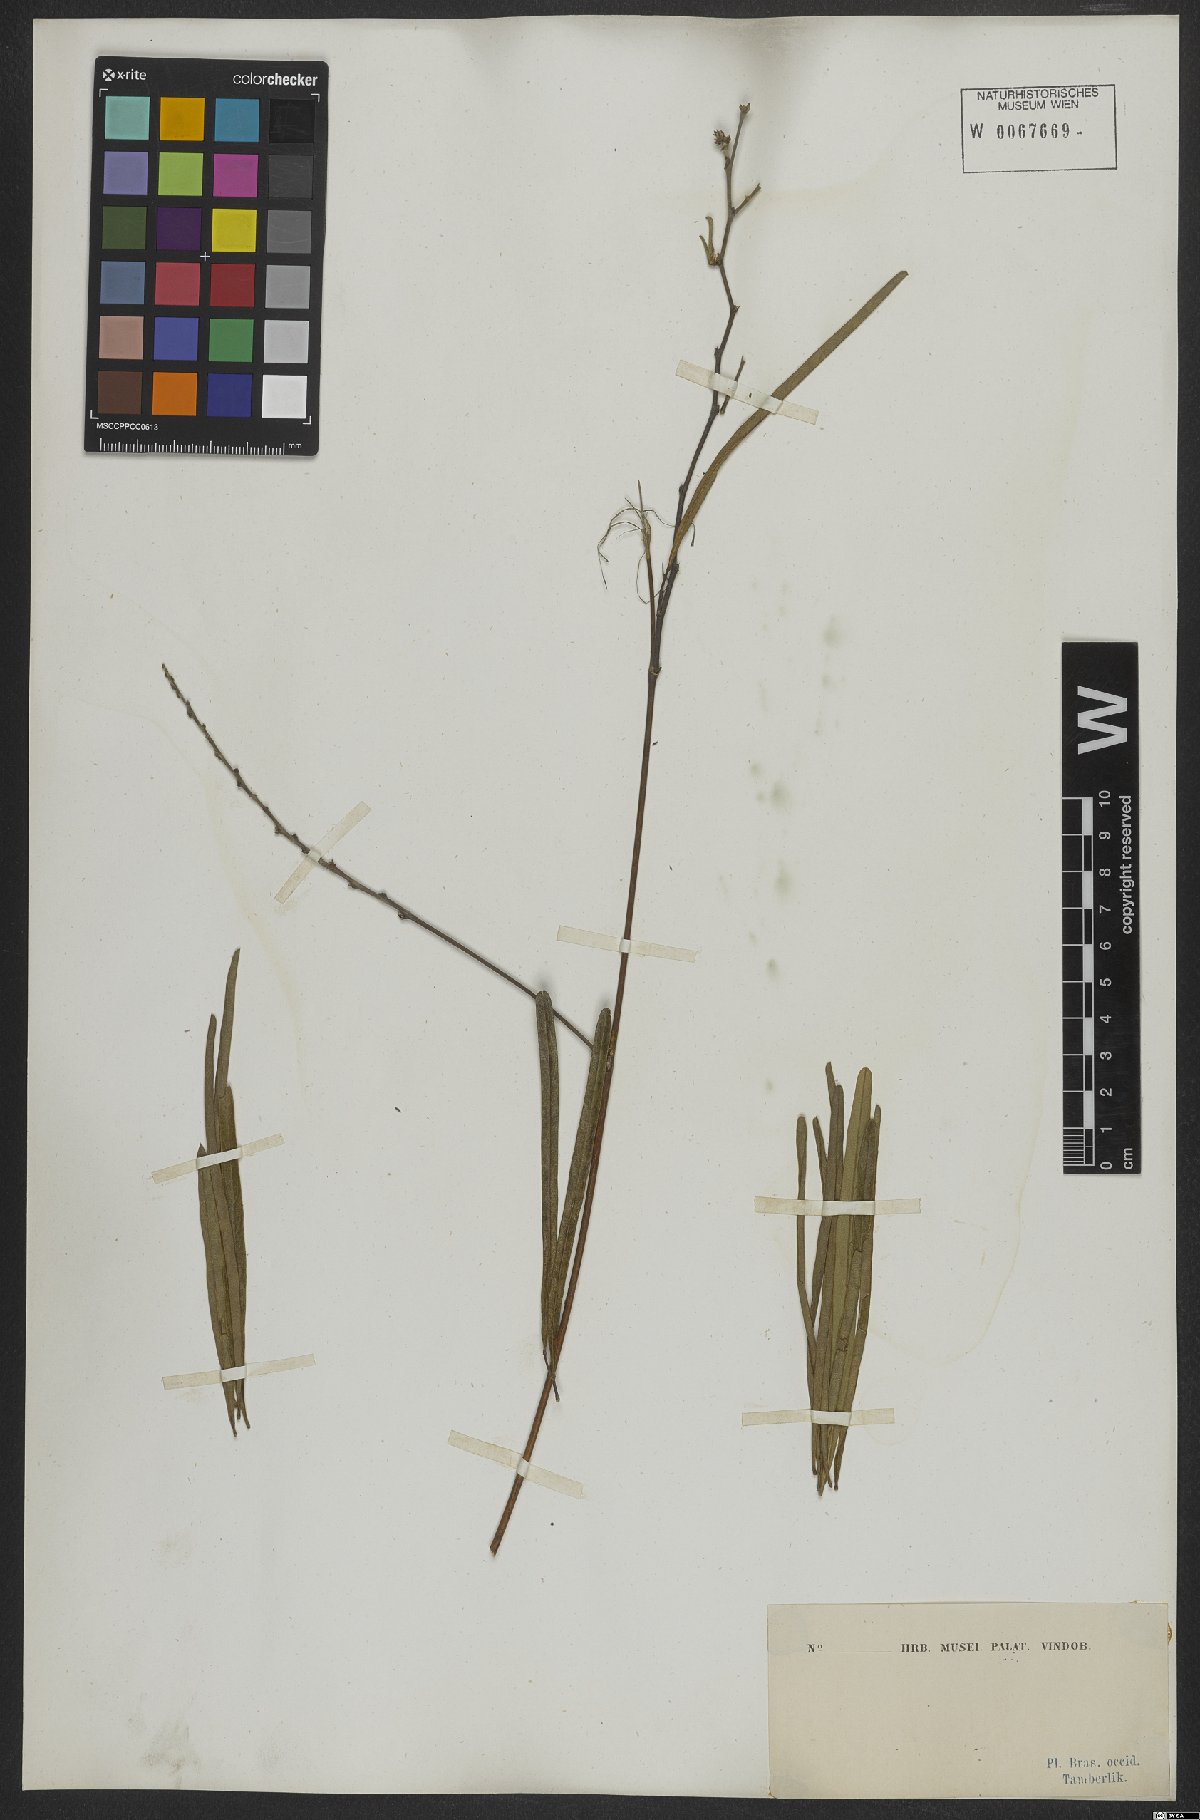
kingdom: Plantae
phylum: Tracheophyta
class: Magnoliopsida
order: Fabales
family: Fabaceae
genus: Eriosema
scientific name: Eriosema
